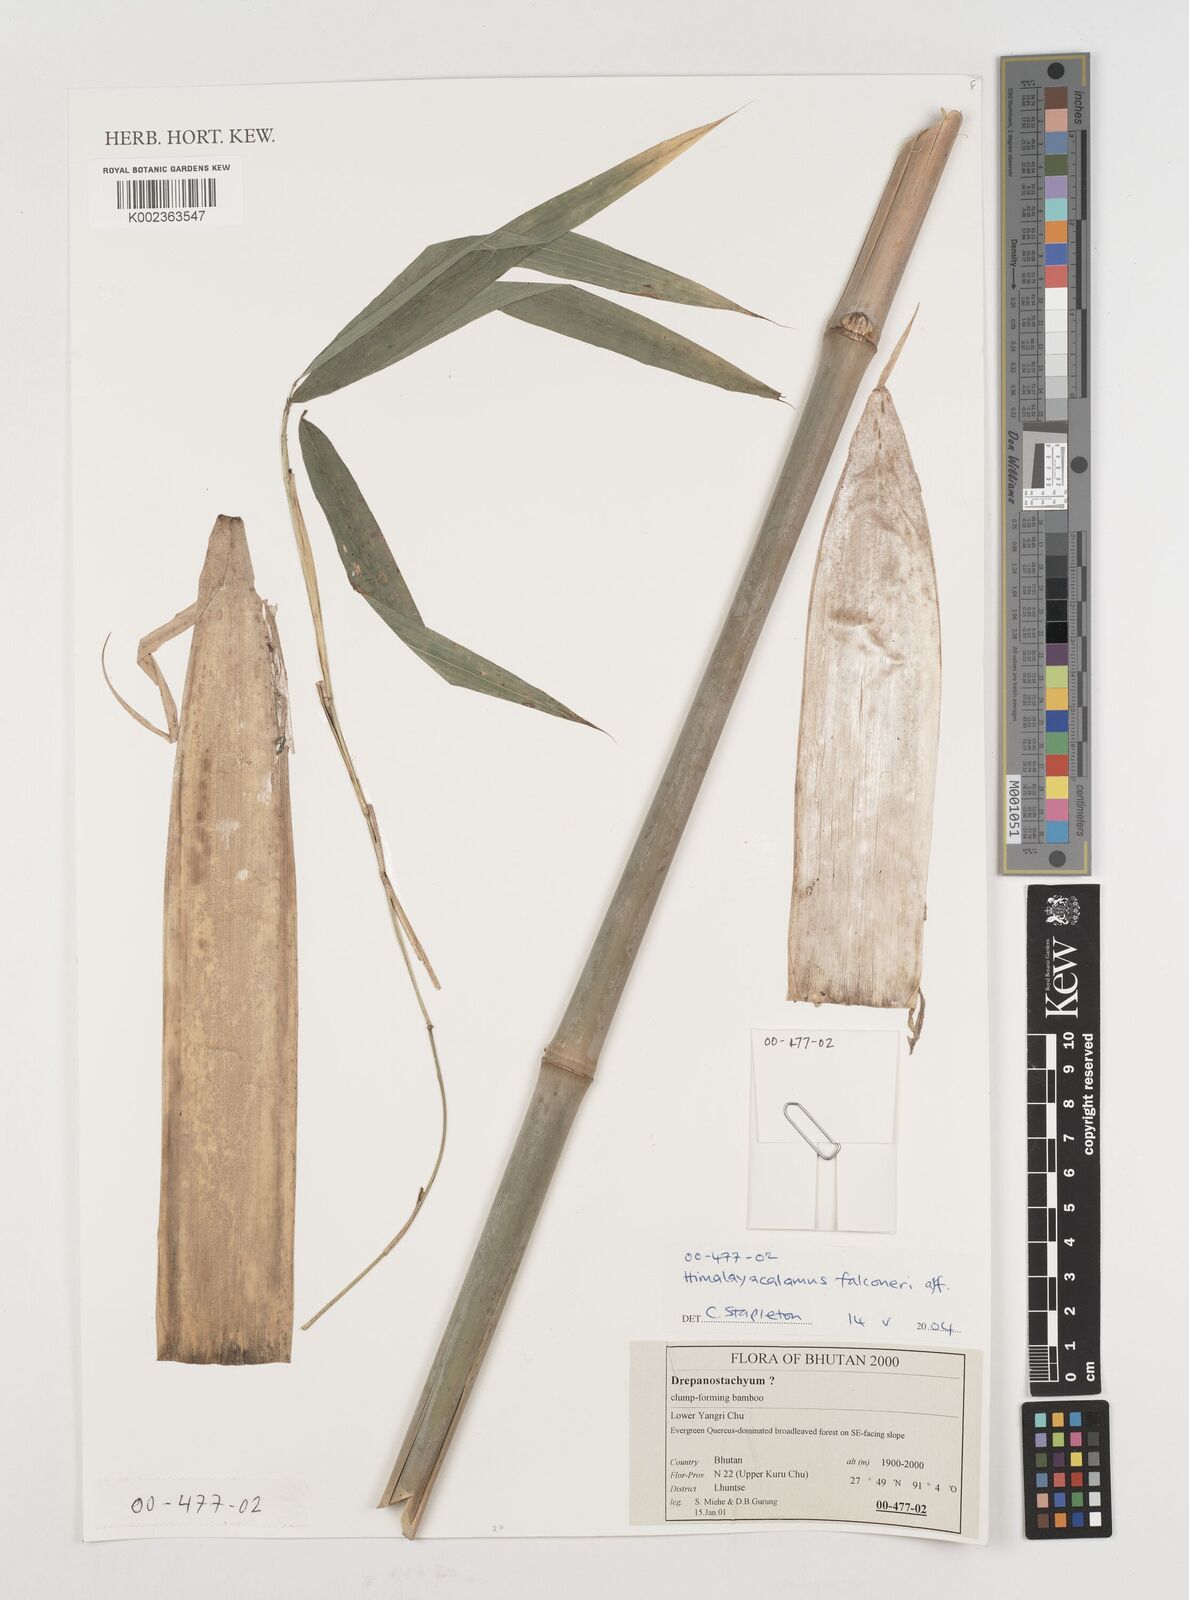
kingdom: Plantae
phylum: Tracheophyta
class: Liliopsida
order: Poales
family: Poaceae
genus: Himalayacalamus
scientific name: Himalayacalamus falconeri
